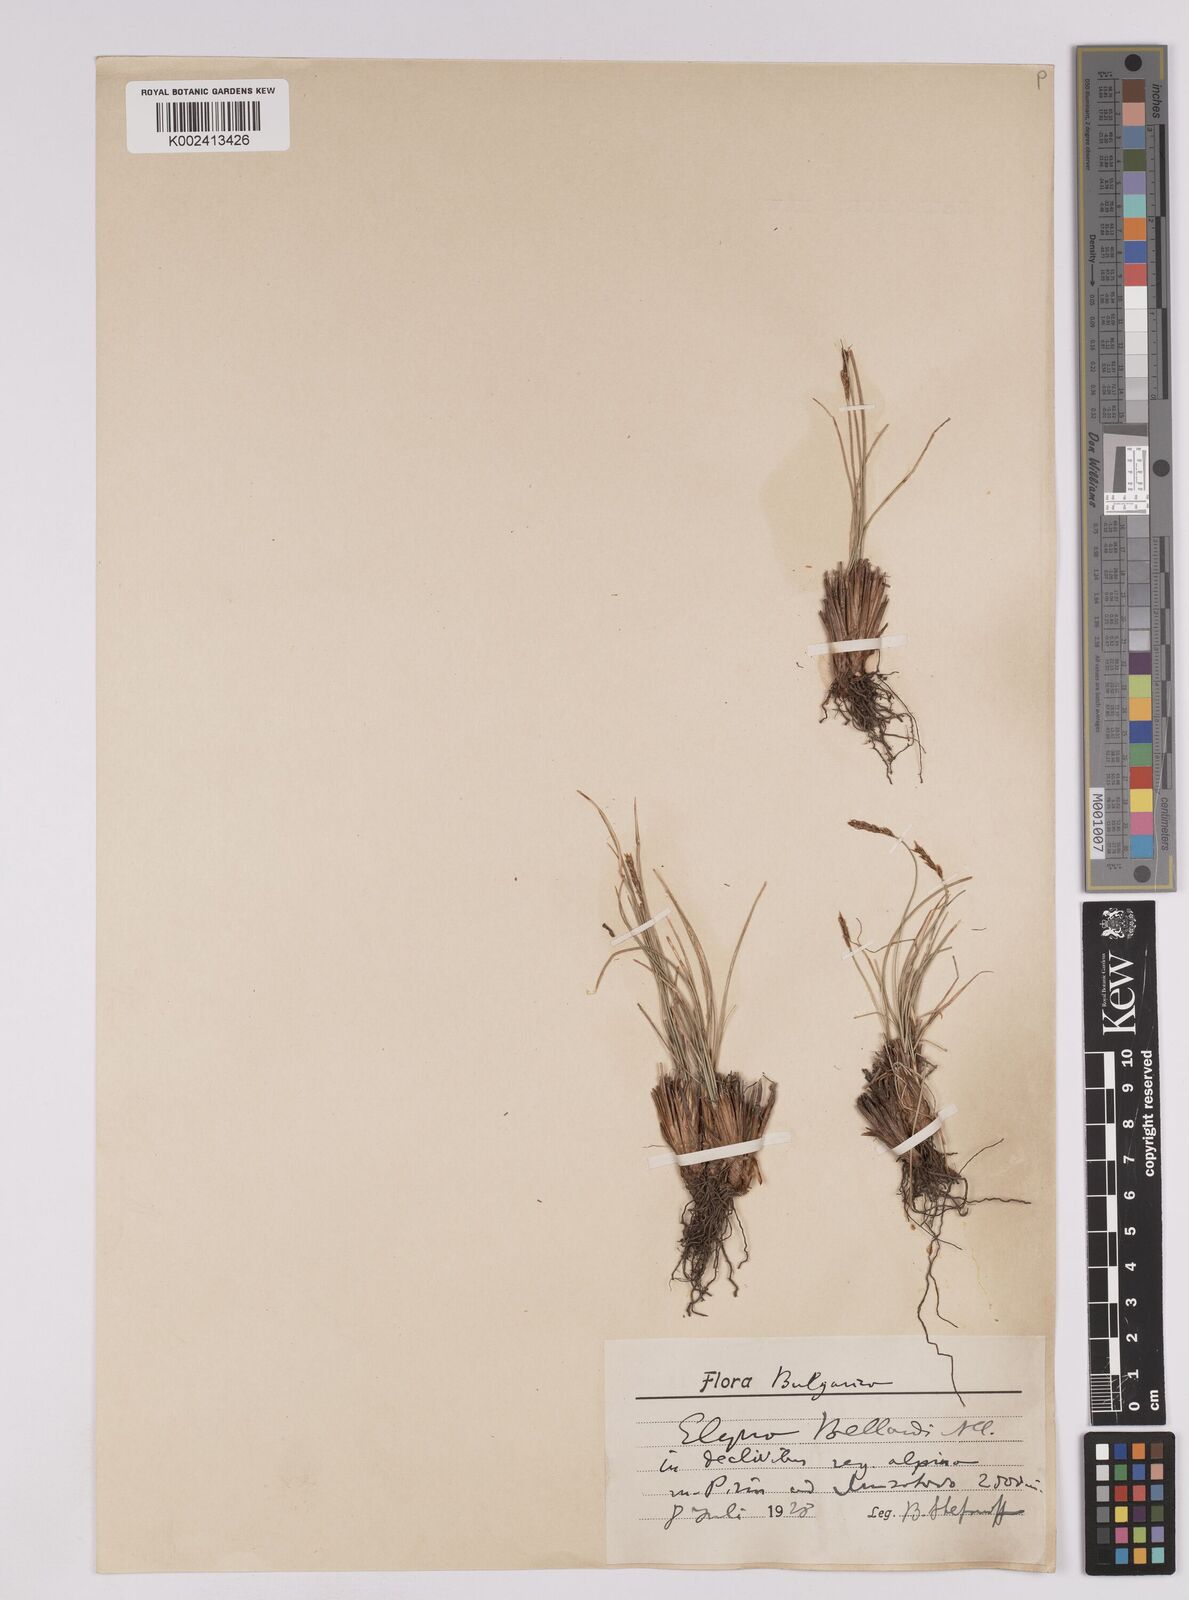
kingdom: Plantae
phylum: Tracheophyta
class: Liliopsida
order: Poales
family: Cyperaceae
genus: Carex
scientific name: Carex myosuroides
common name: Bellard's bog sedge
